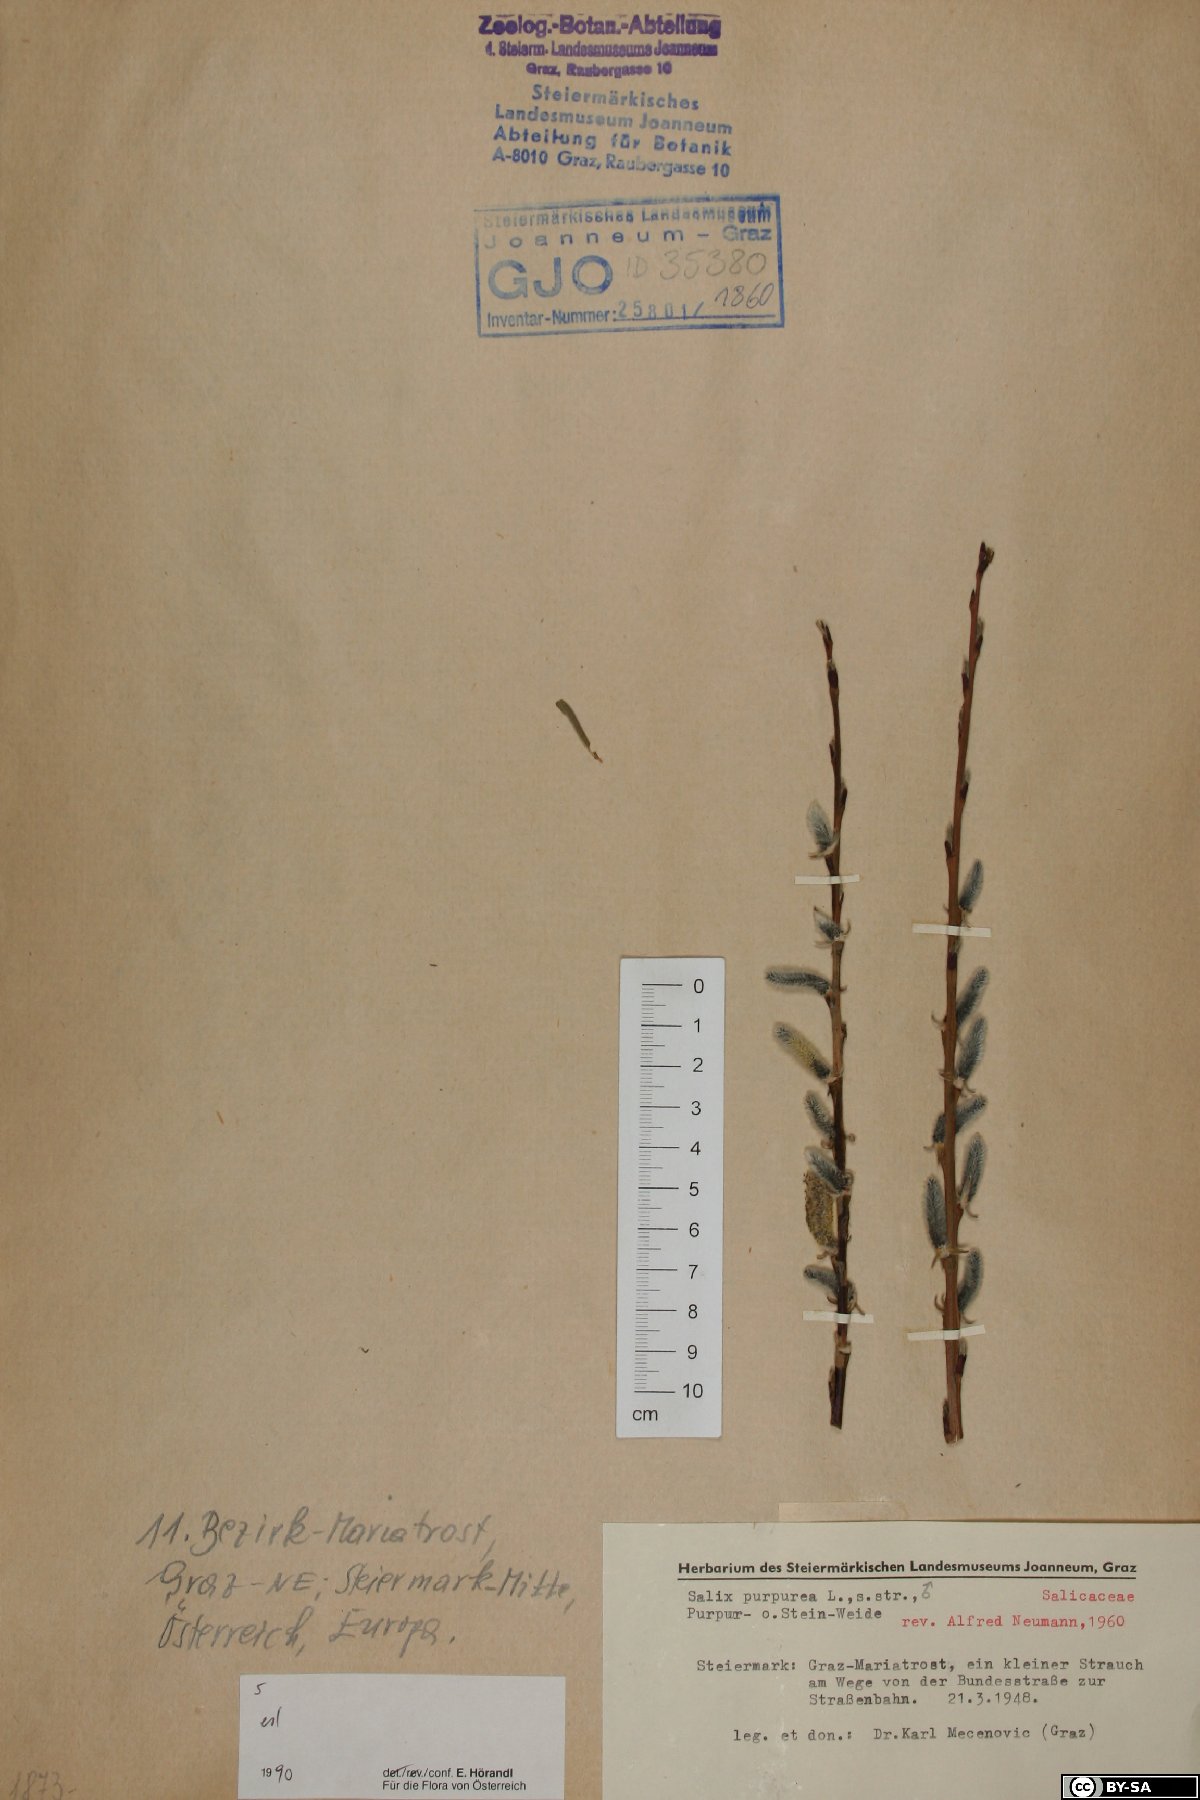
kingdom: Plantae
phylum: Tracheophyta
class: Magnoliopsida
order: Malpighiales
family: Salicaceae
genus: Salix
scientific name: Salix purpurea
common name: Purple willow
